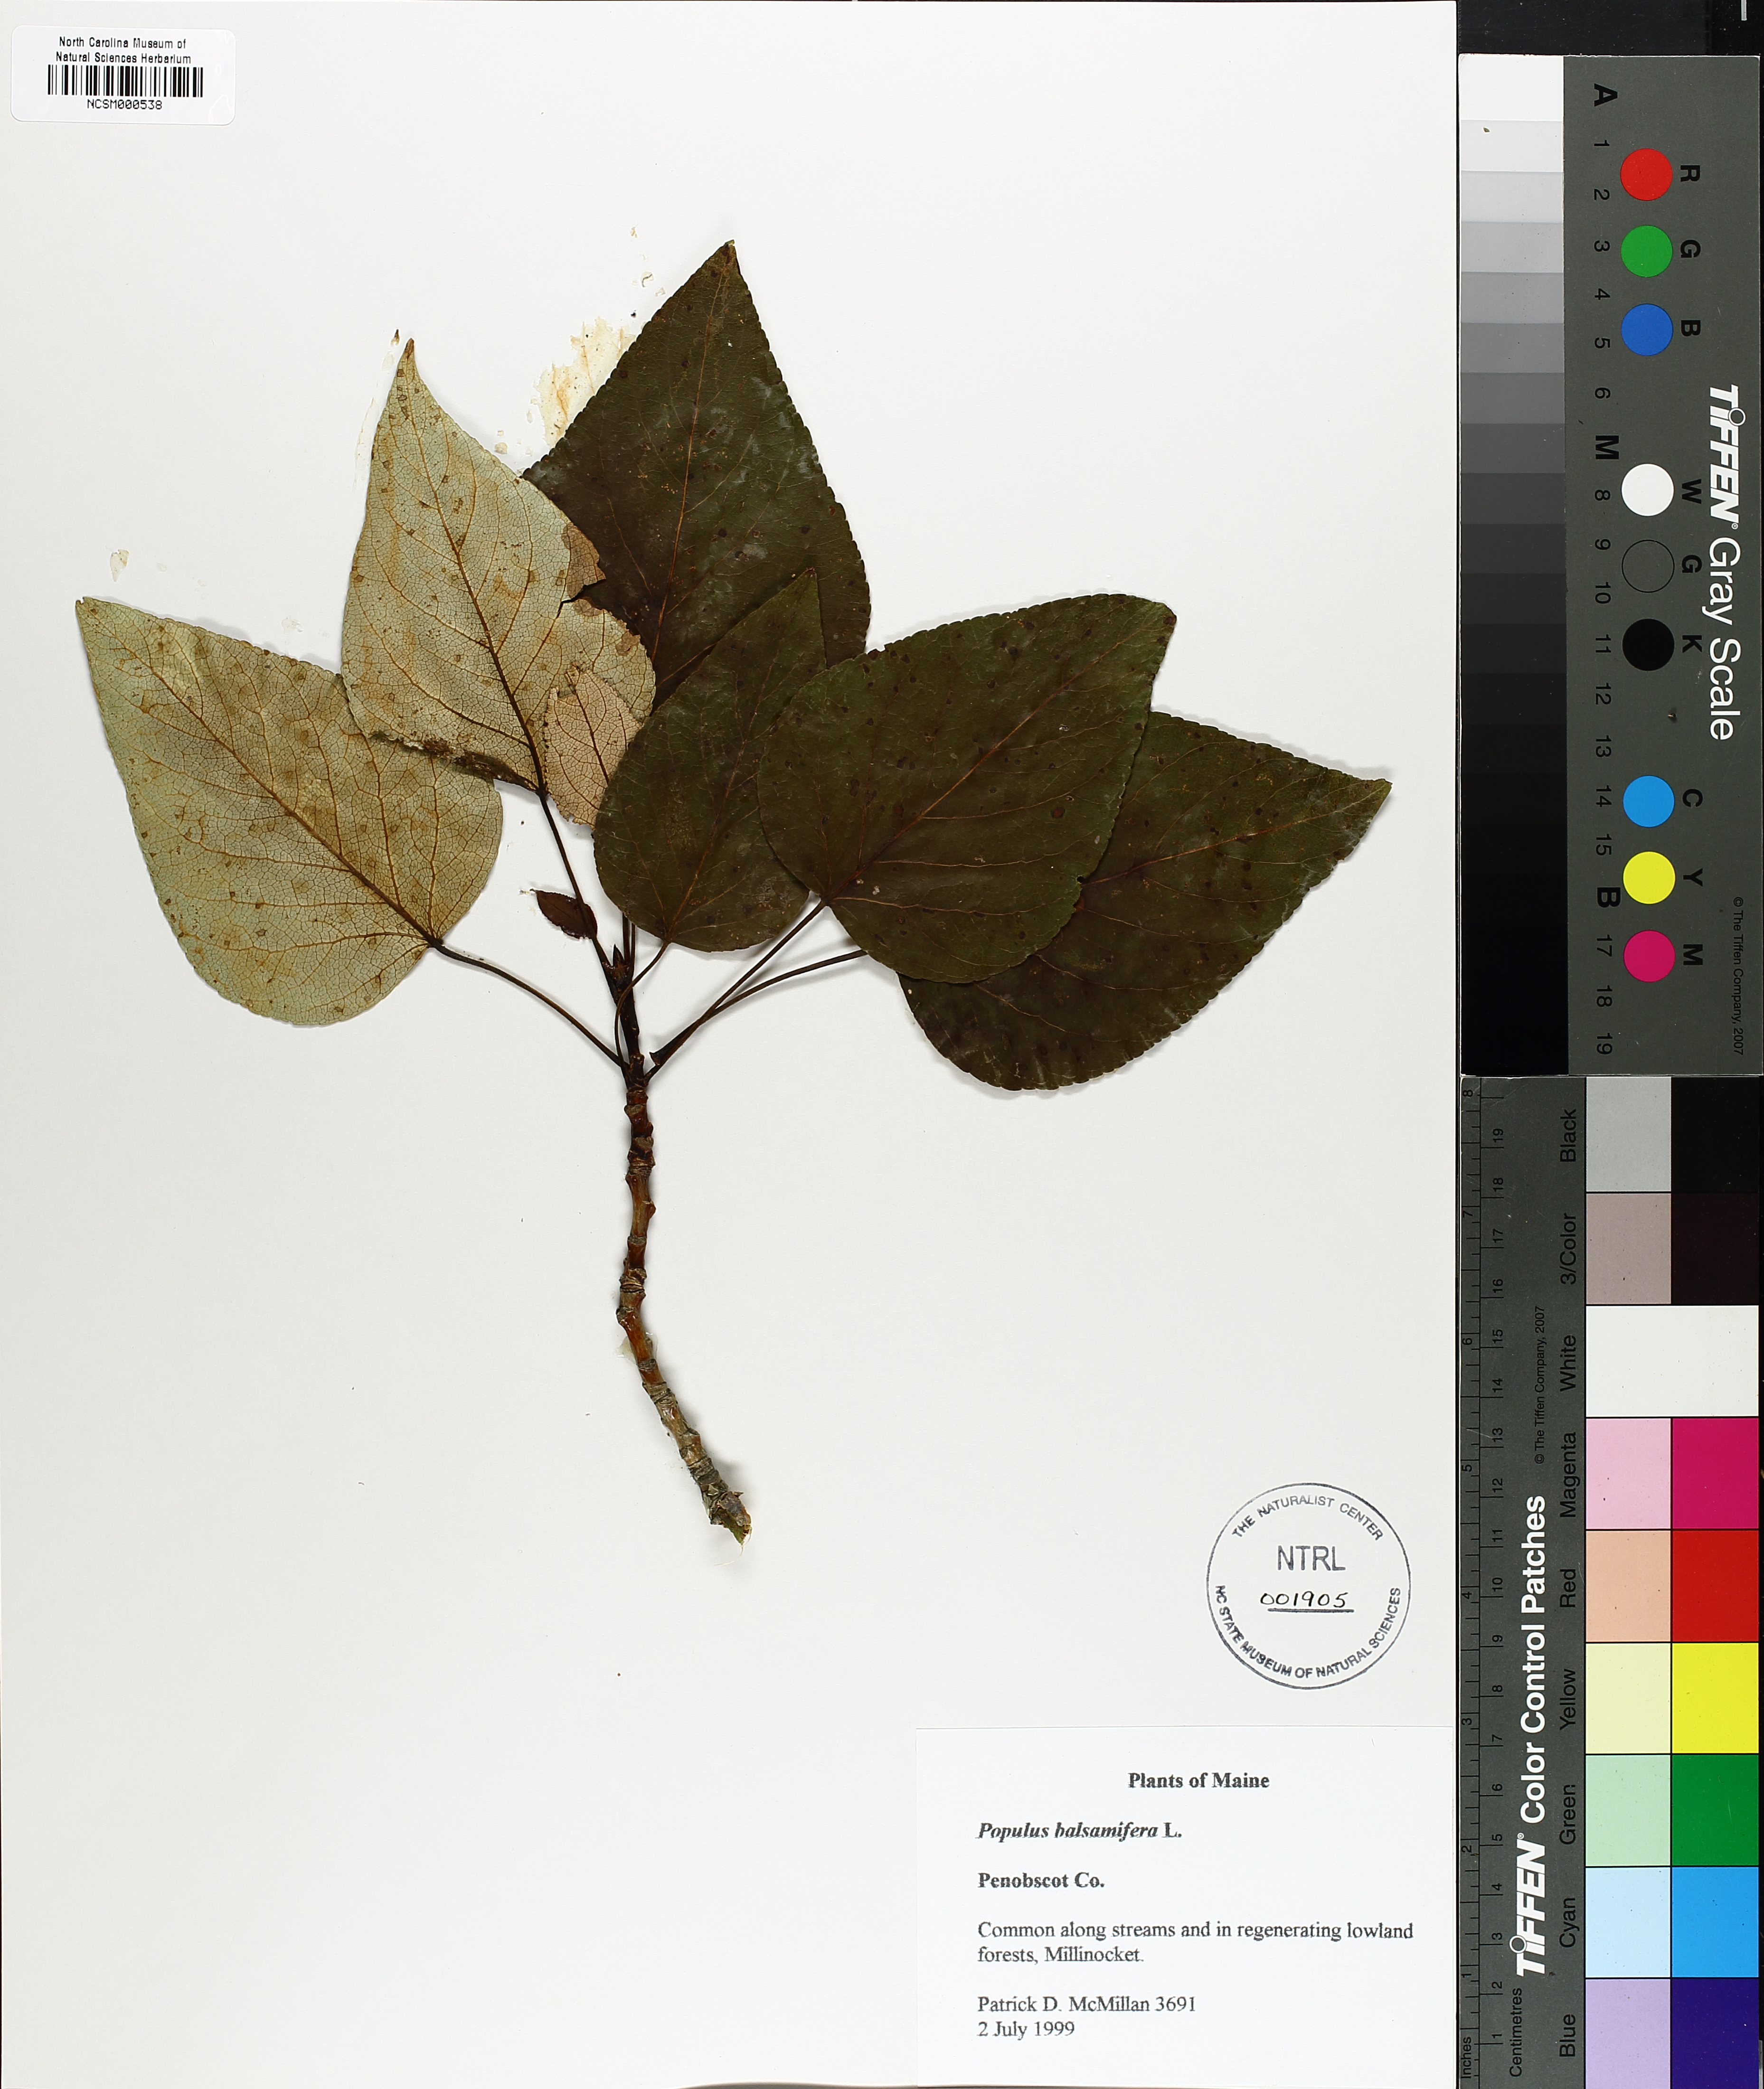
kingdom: Plantae
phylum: Tracheophyta
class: Magnoliopsida
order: Malpighiales
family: Salicaceae
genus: Populus
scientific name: Populus balsamifera
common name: Balsam poplar
